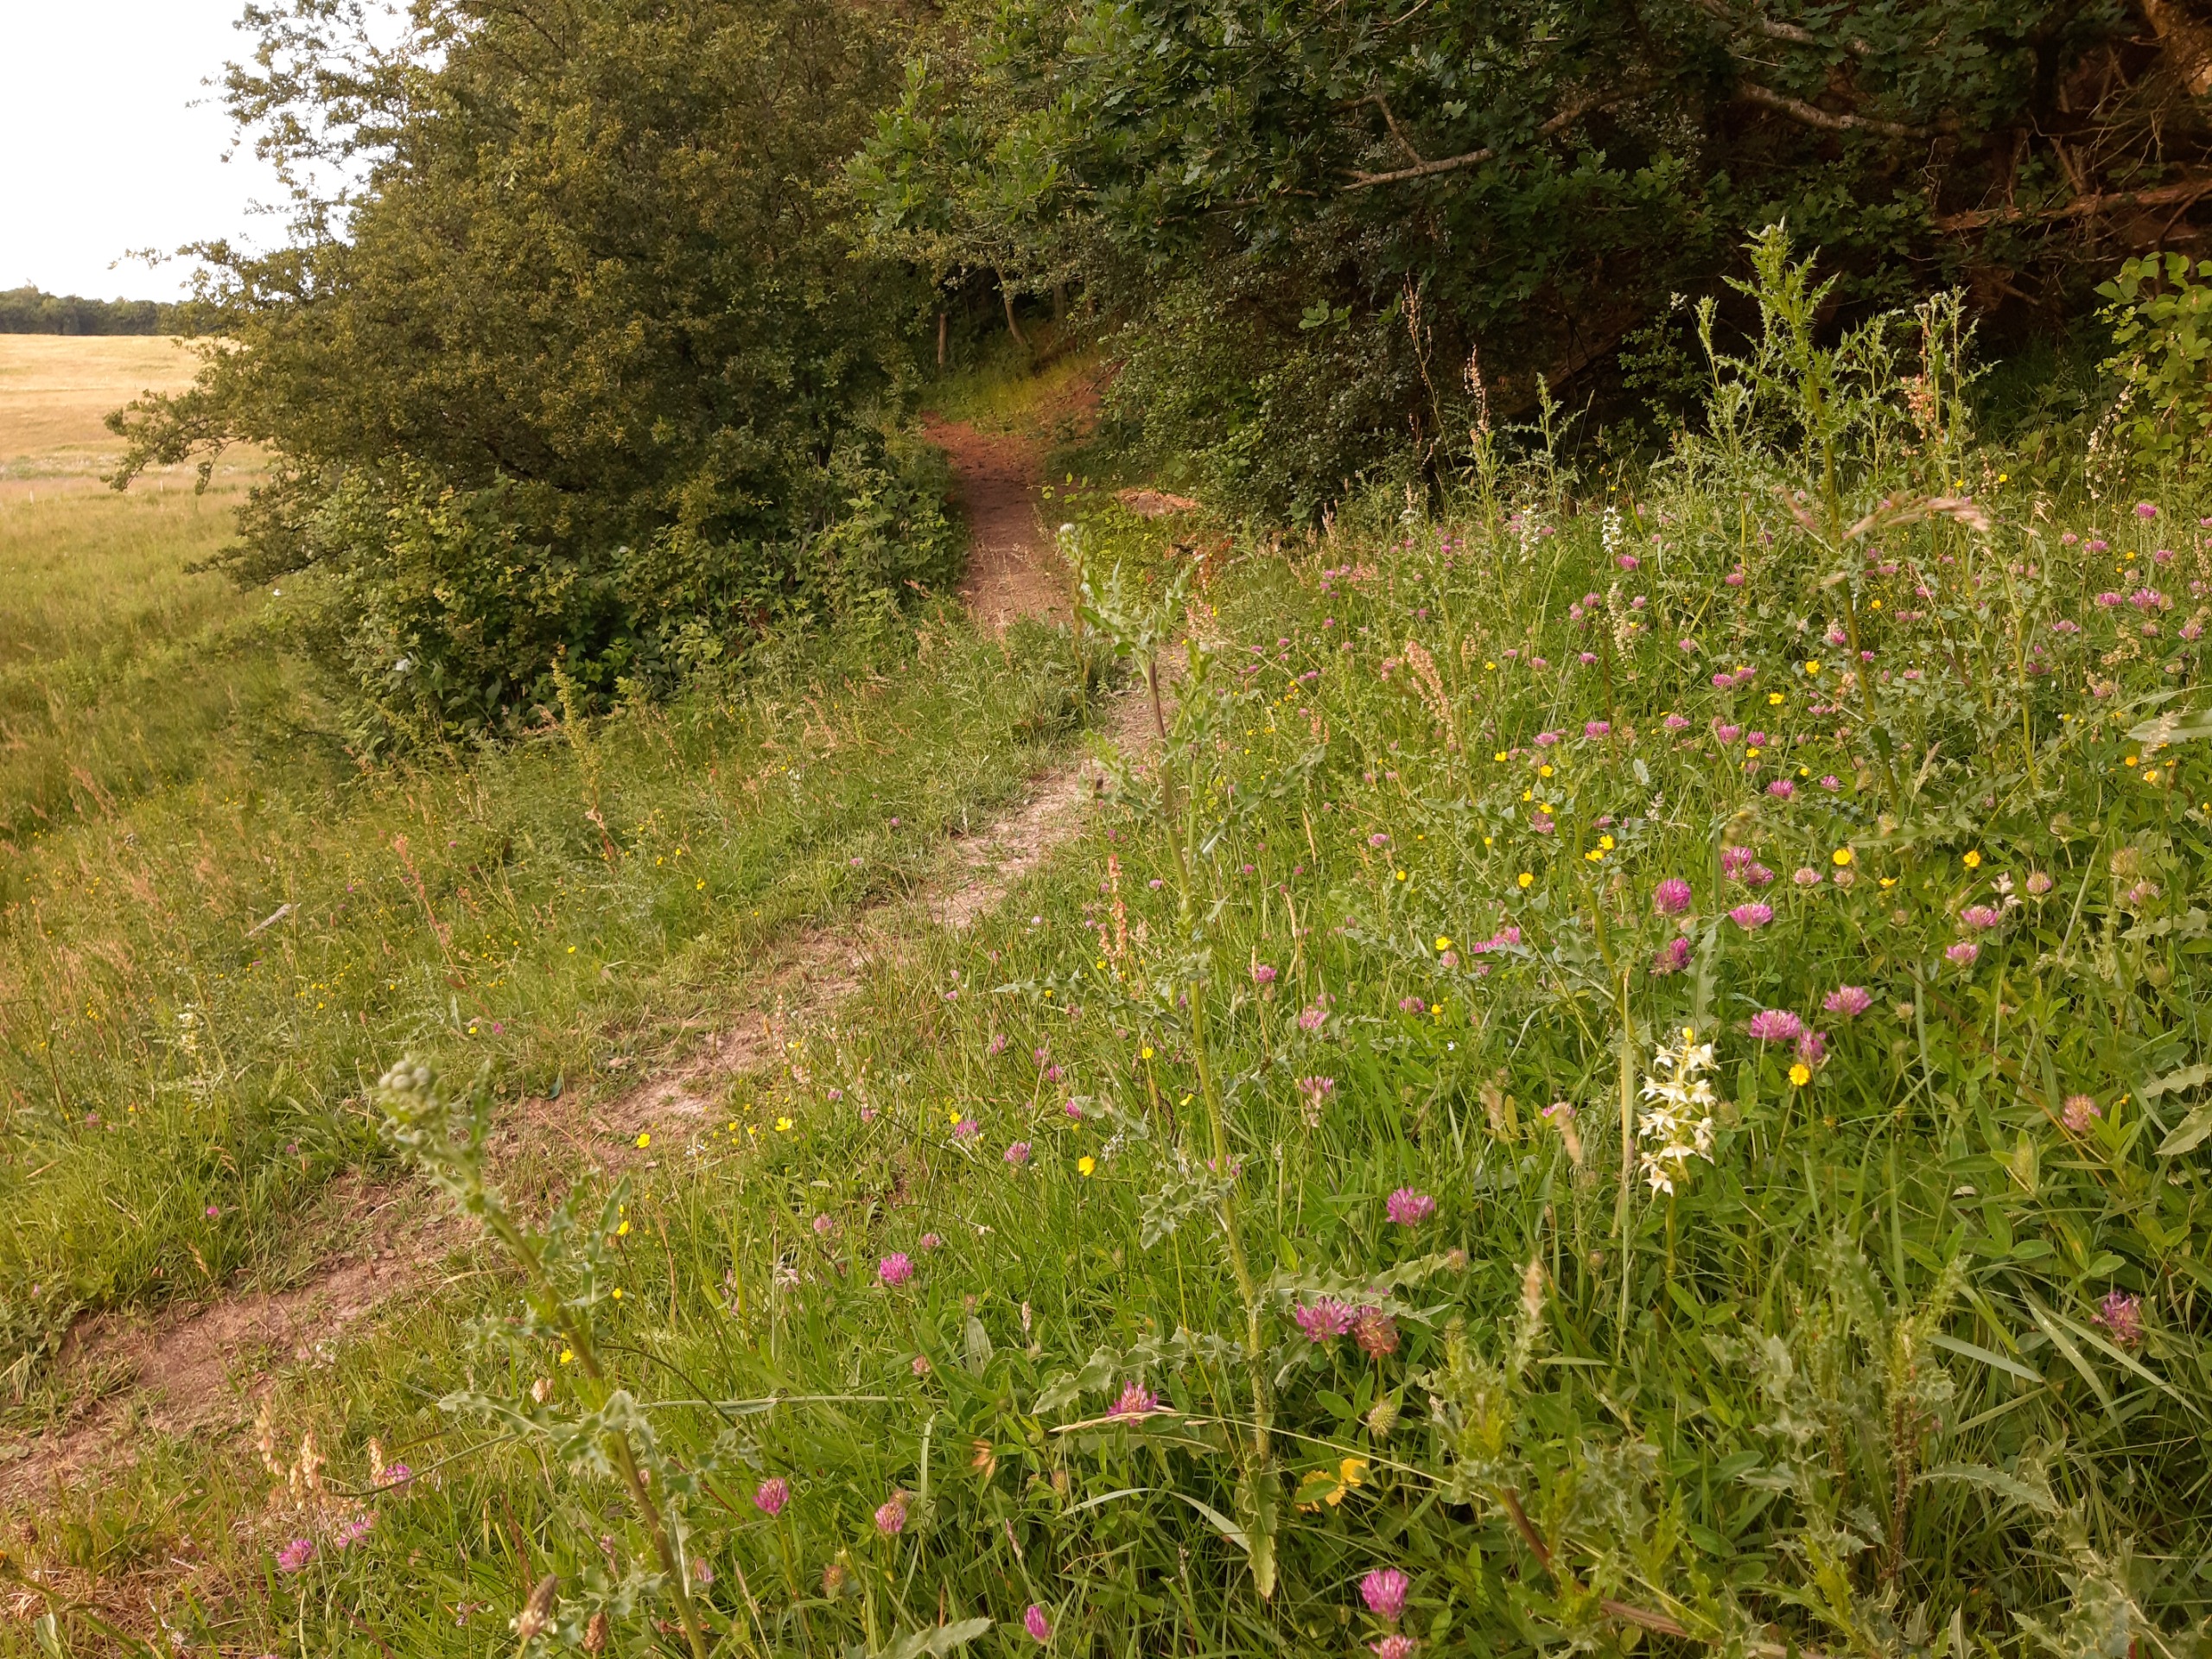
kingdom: Plantae
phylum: Tracheophyta
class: Liliopsida
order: Asparagales
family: Orchidaceae
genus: Platanthera
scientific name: Platanthera chlorantha
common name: Skov-gøgelilje
